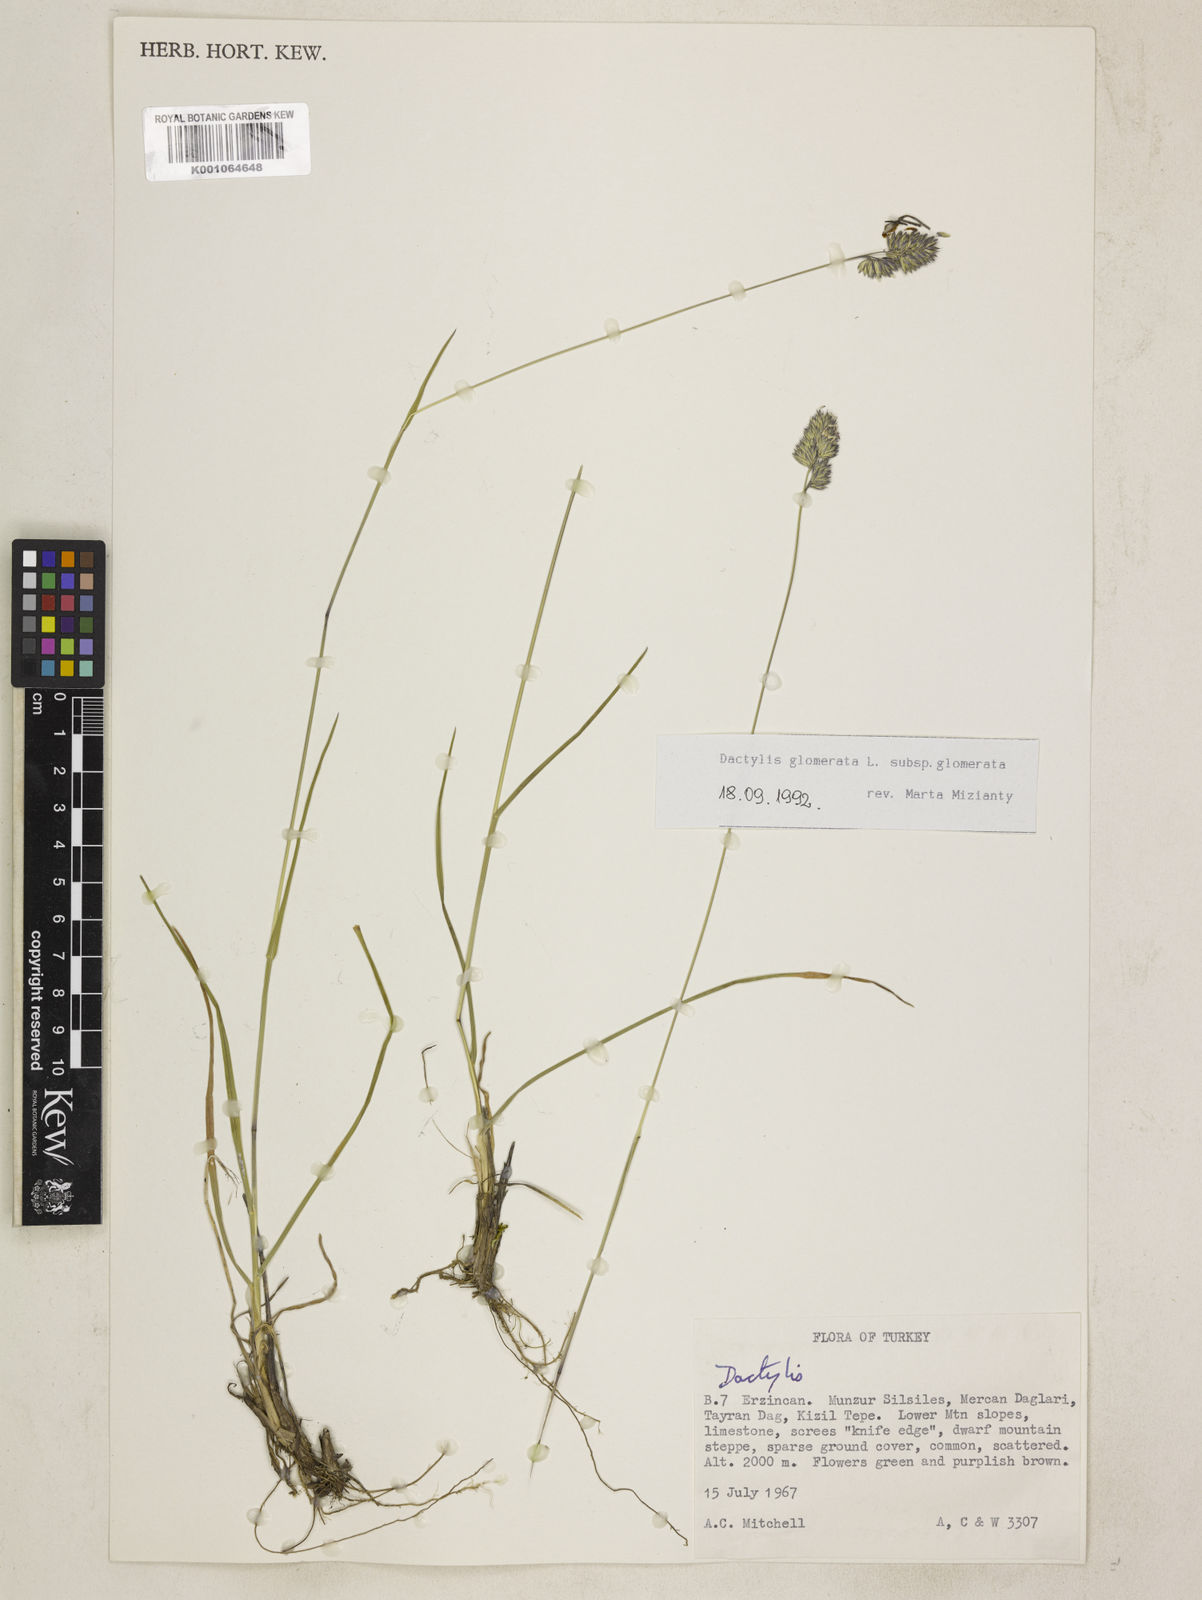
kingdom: Plantae
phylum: Tracheophyta
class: Liliopsida
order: Poales
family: Poaceae
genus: Dactylis
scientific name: Dactylis glomerata
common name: Orchardgrass
